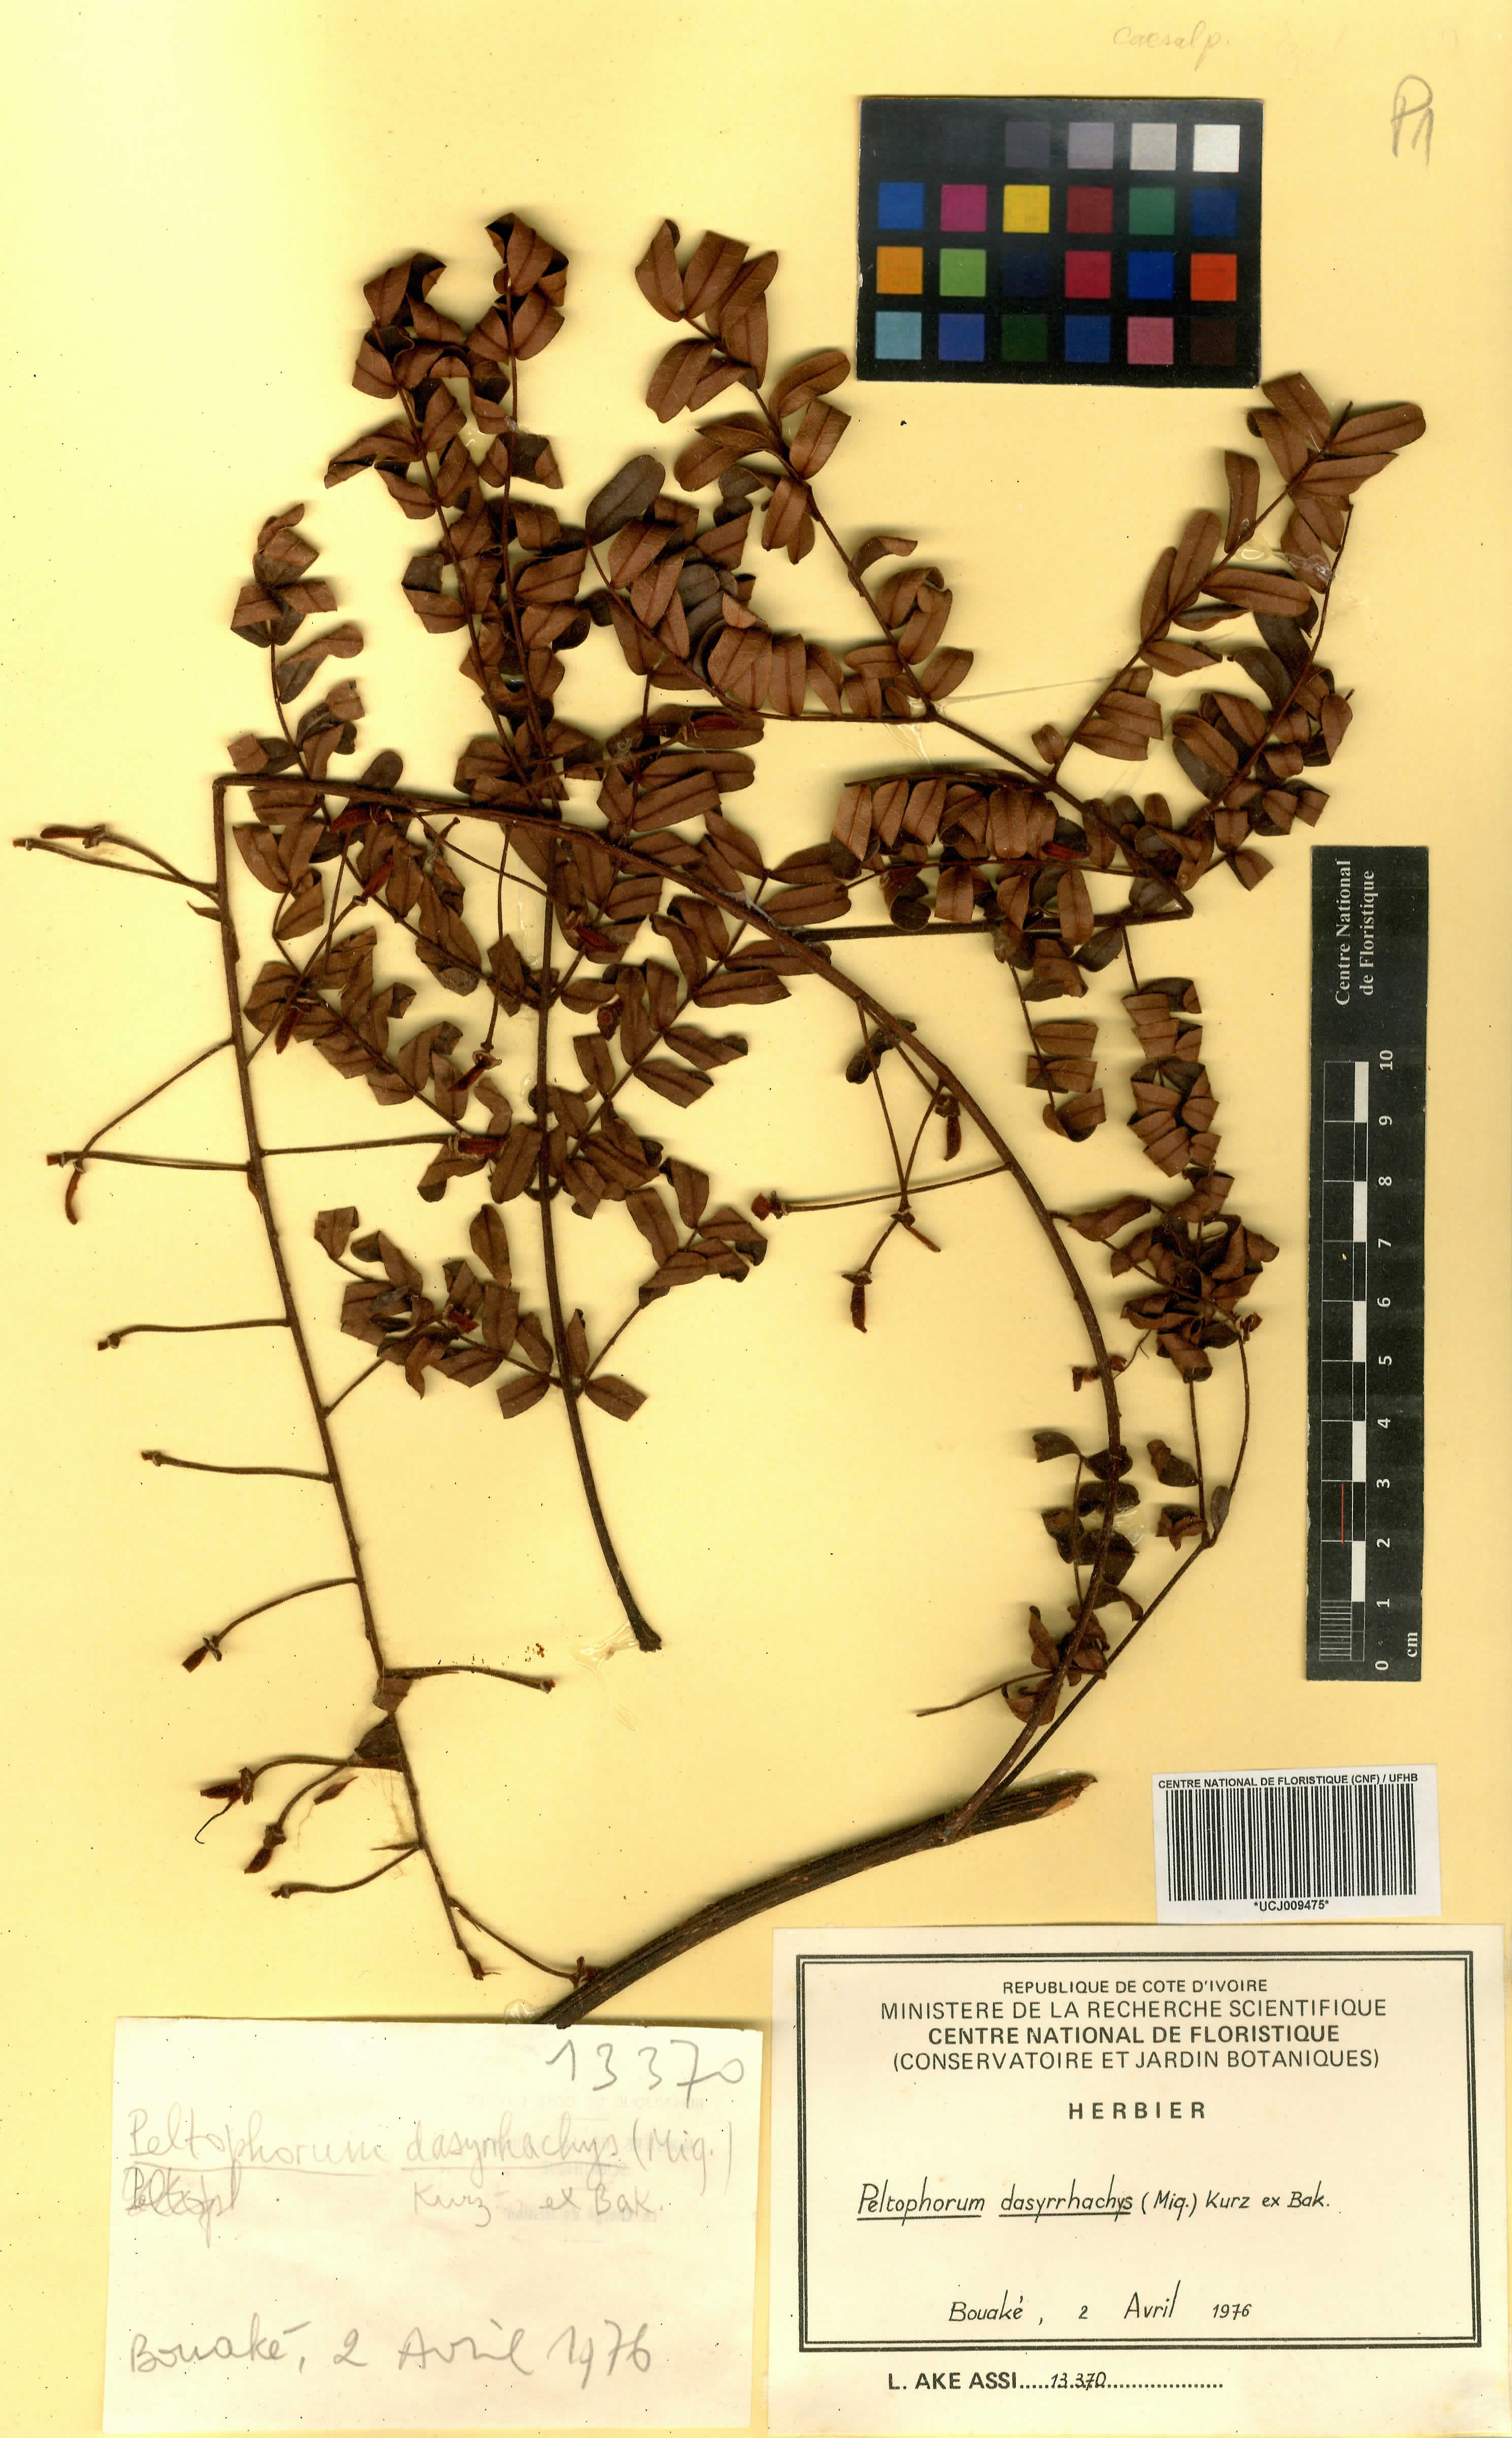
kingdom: Plantae
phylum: Tracheophyta
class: Magnoliopsida
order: Fabales
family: Fabaceae
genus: Peltophorum
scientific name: Peltophorum dasyrhachis
